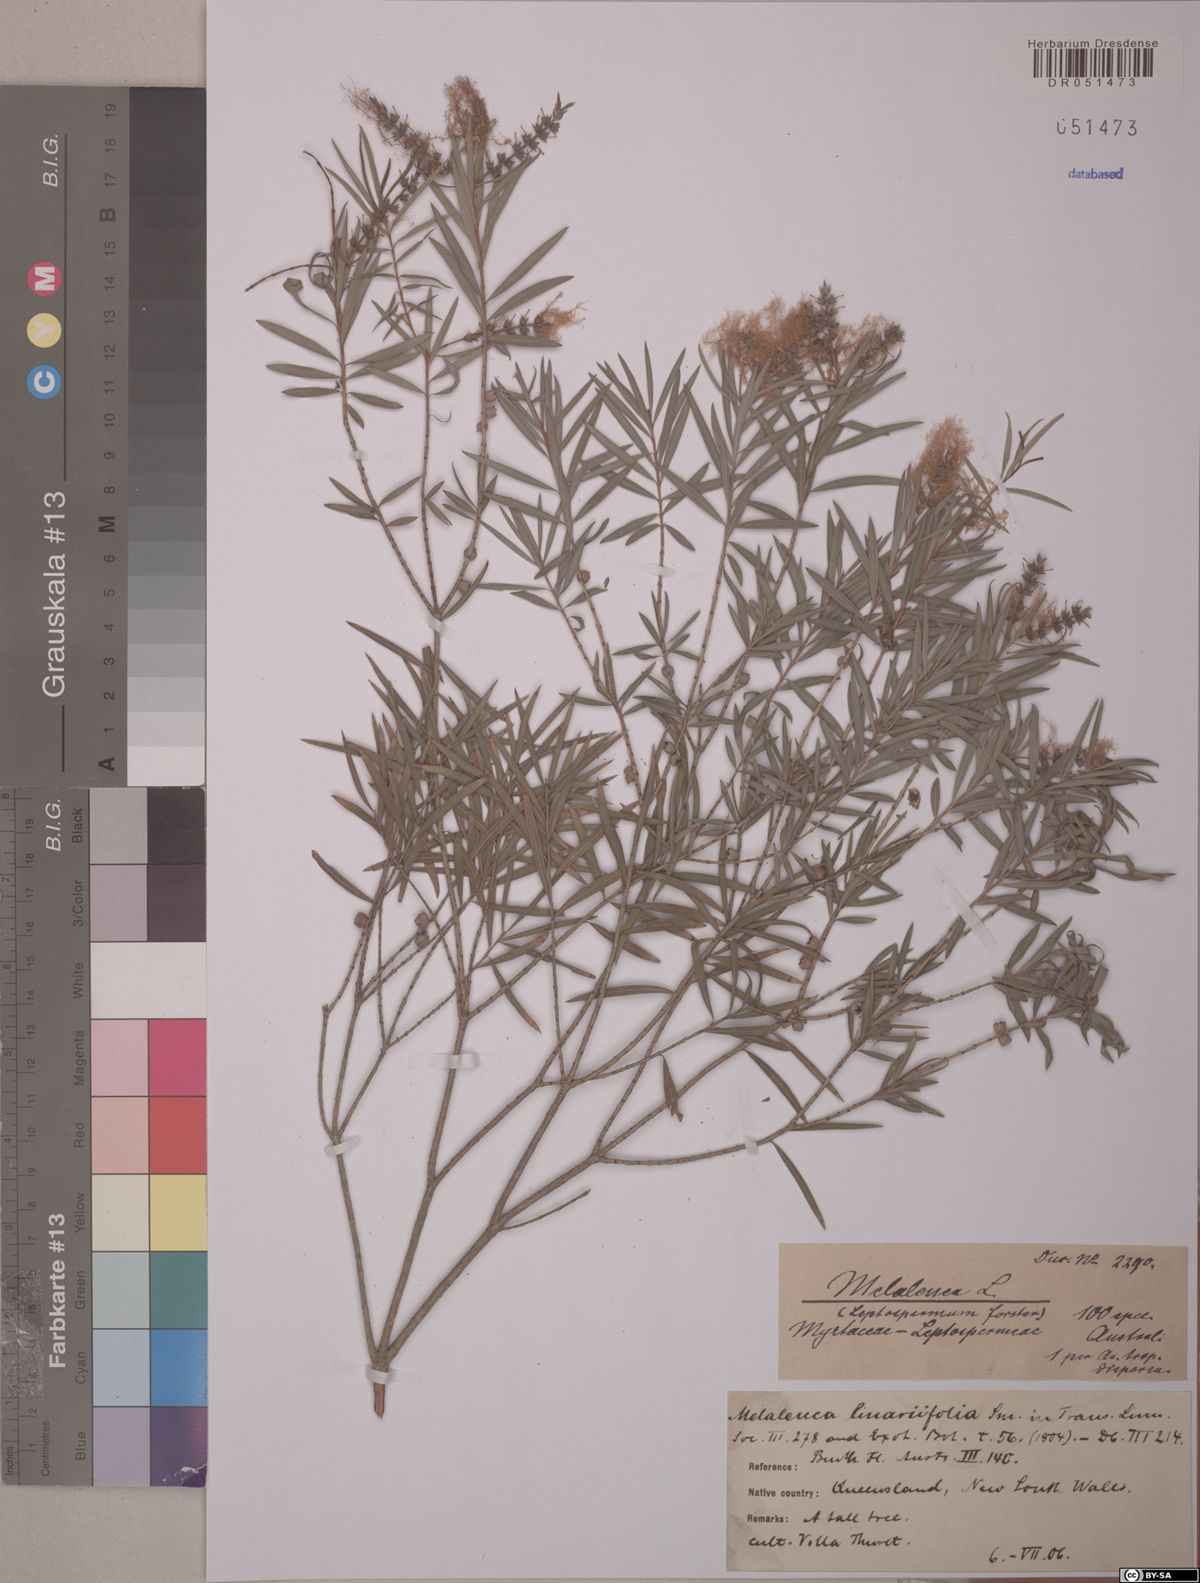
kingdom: Plantae
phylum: Tracheophyta
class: Magnoliopsida
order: Myrtales
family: Myrtaceae
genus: Melaleuca
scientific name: Melaleuca linariifolia
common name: Cajeput tree
